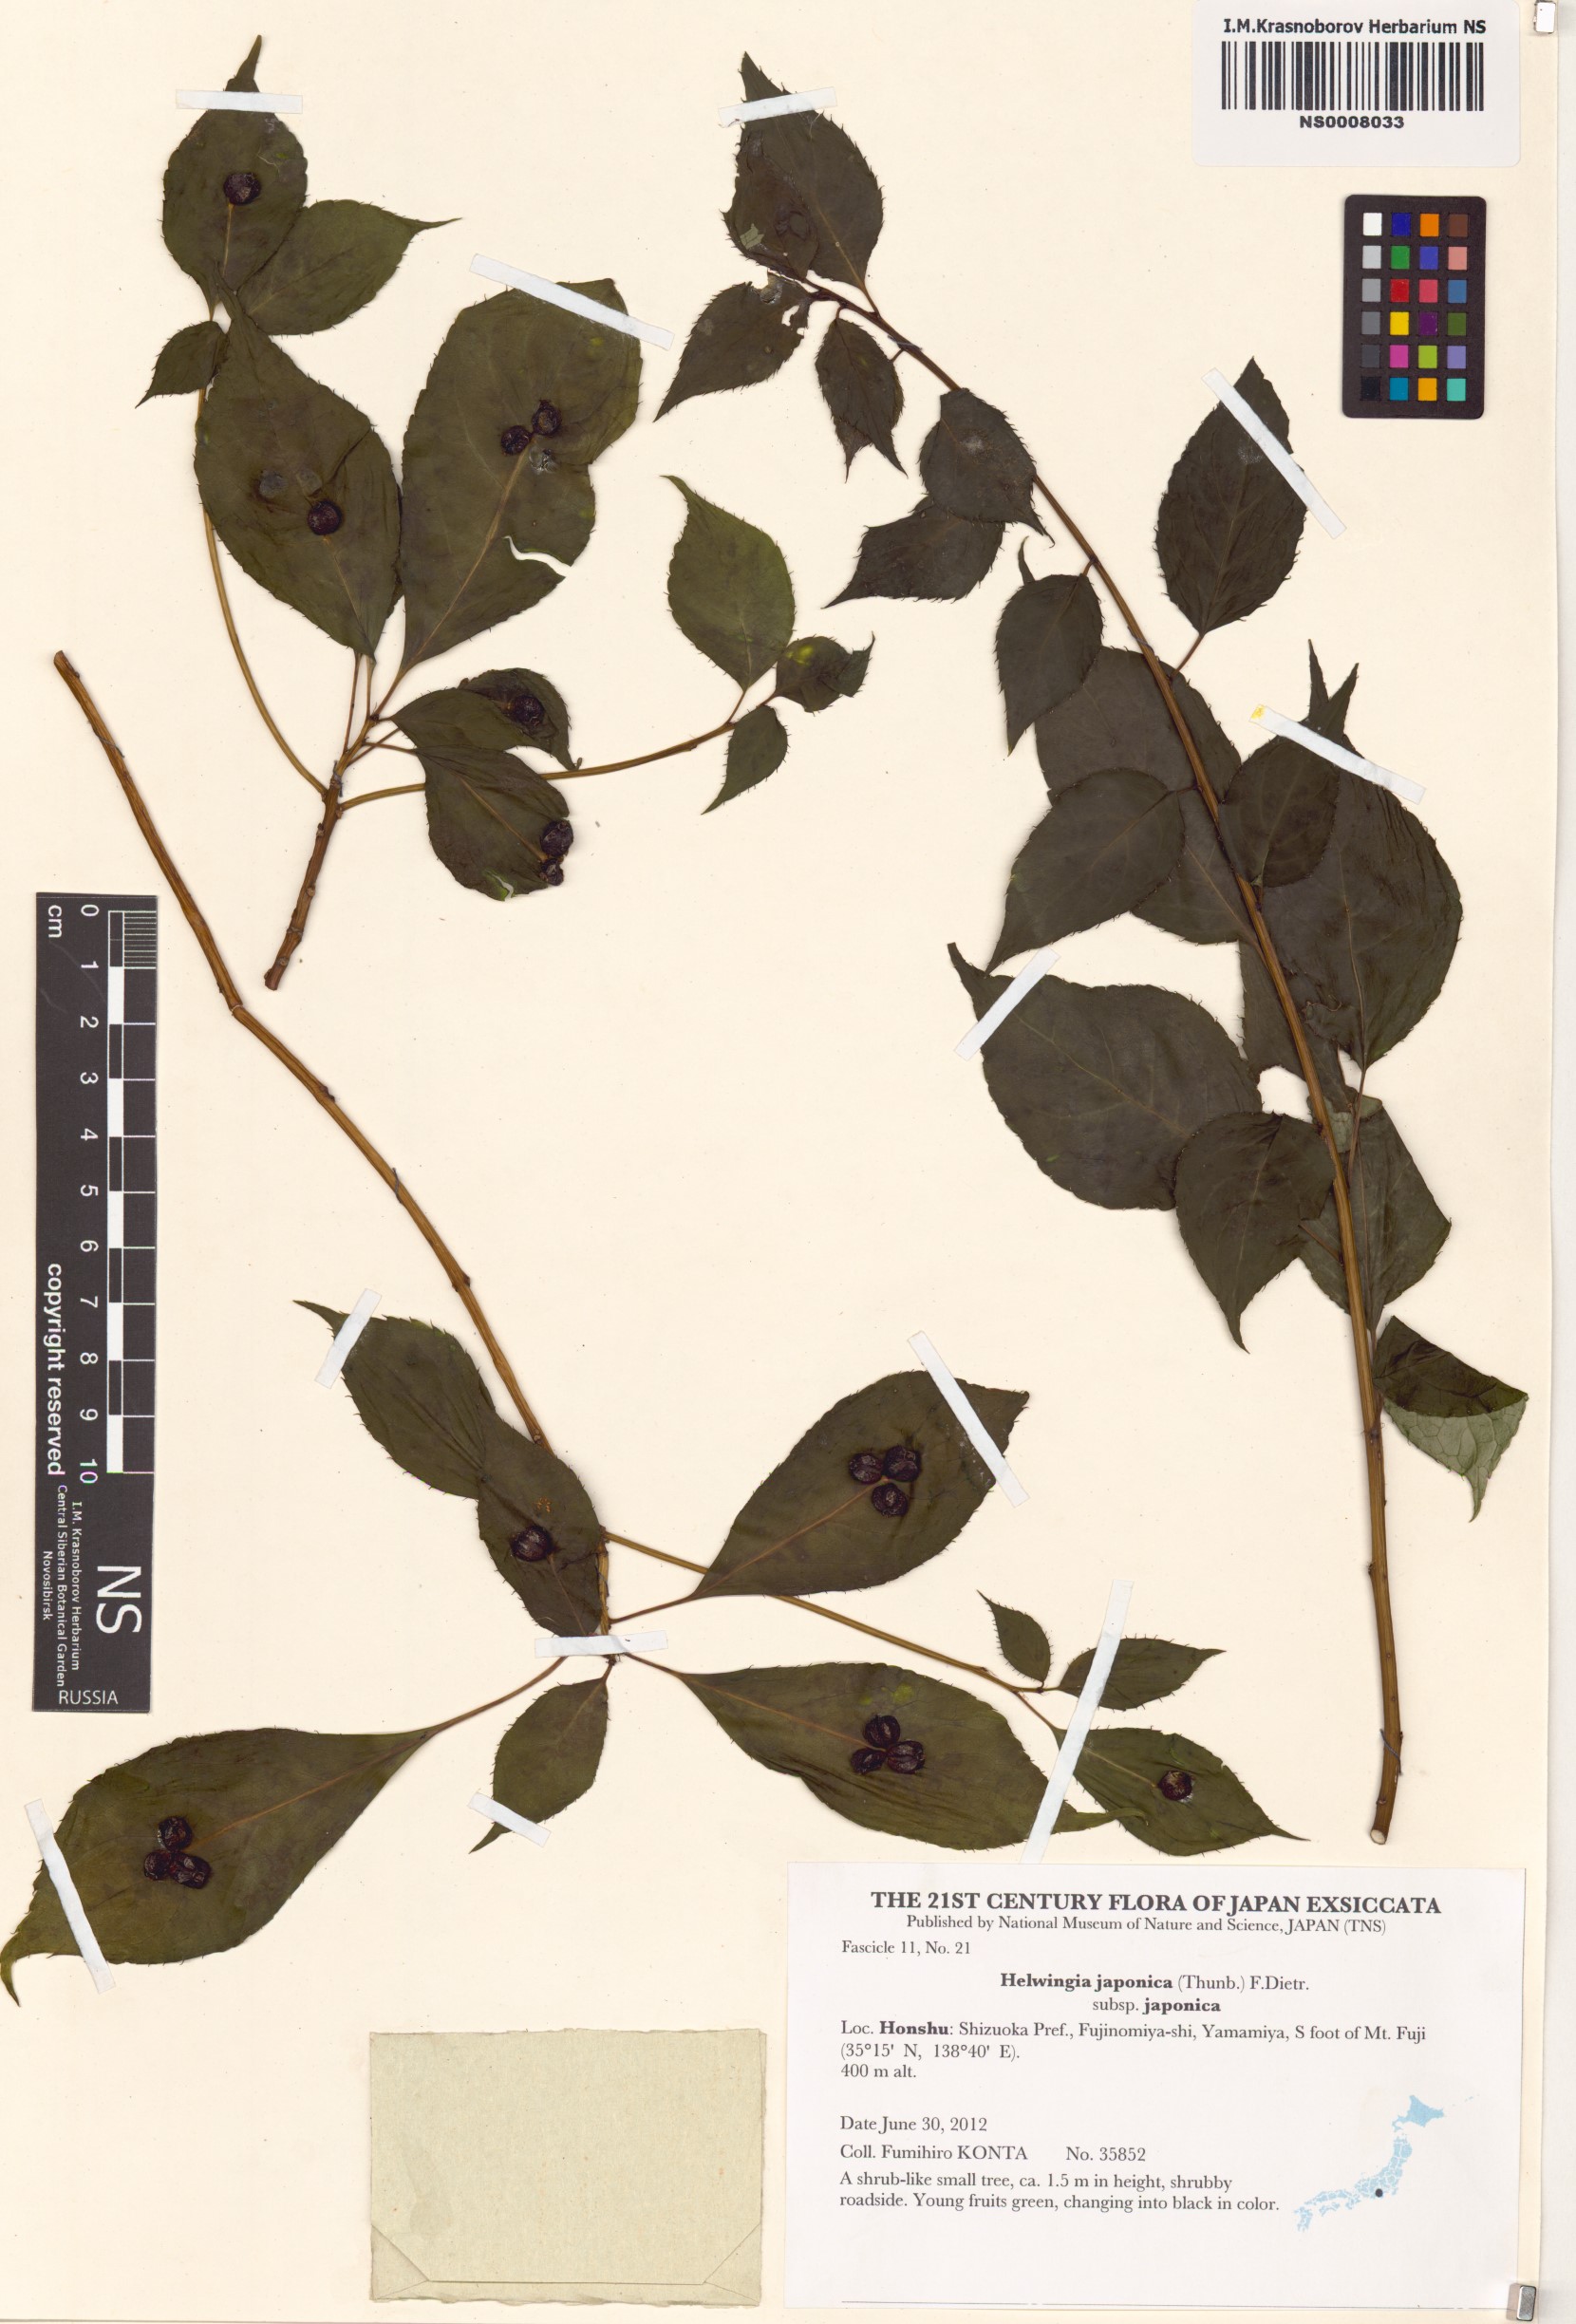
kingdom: Plantae
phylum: Tracheophyta
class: Magnoliopsida
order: Aquifoliales
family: Helwingiaceae
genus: Helwingia
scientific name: Helwingia japonica
